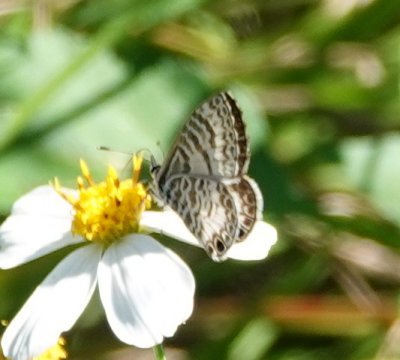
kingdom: Animalia
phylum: Arthropoda
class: Insecta
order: Lepidoptera
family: Lycaenidae
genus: Leptotes
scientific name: Leptotes cassius
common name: Cassius Blue
